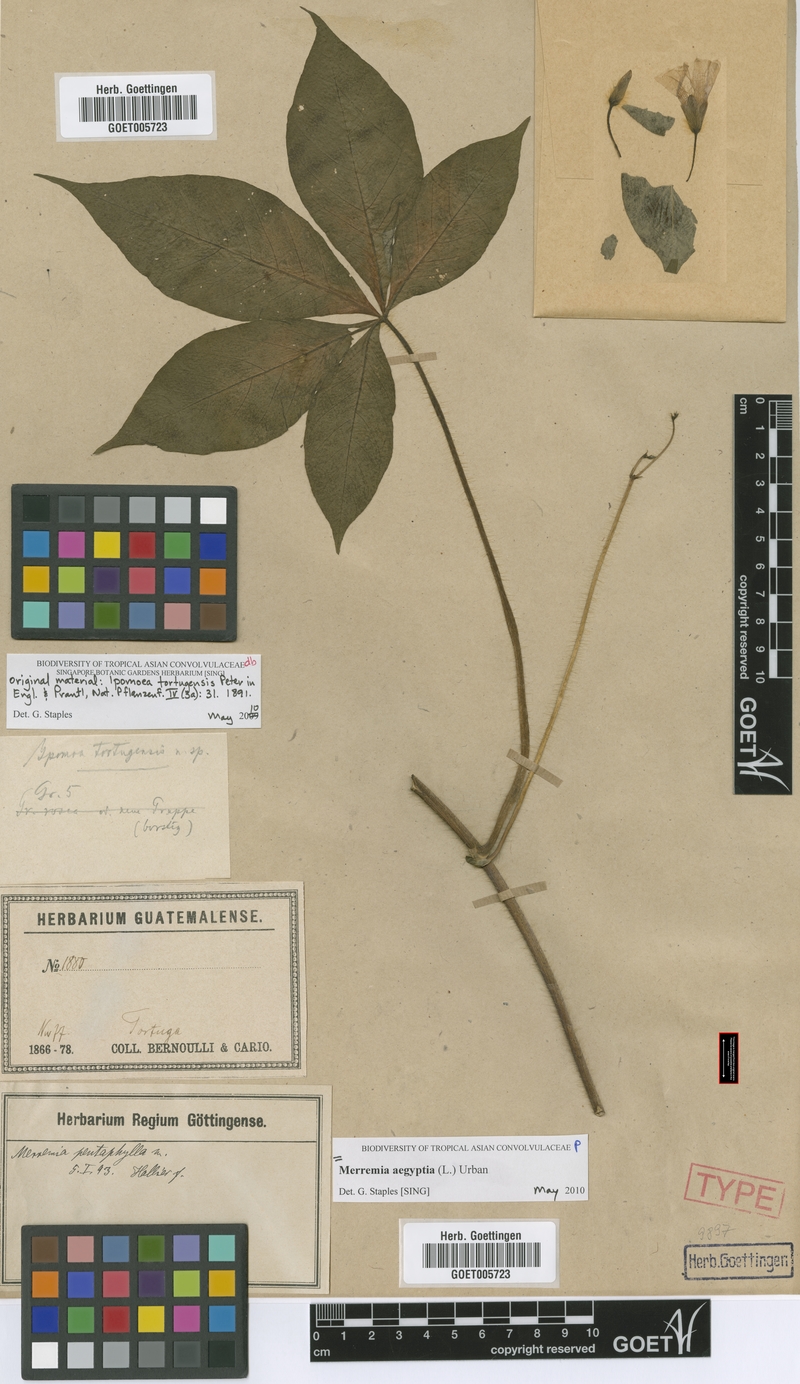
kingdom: Plantae
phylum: Tracheophyta
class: Magnoliopsida
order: Solanales
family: Convolvulaceae
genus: Distimake
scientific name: Distimake aegyptius
